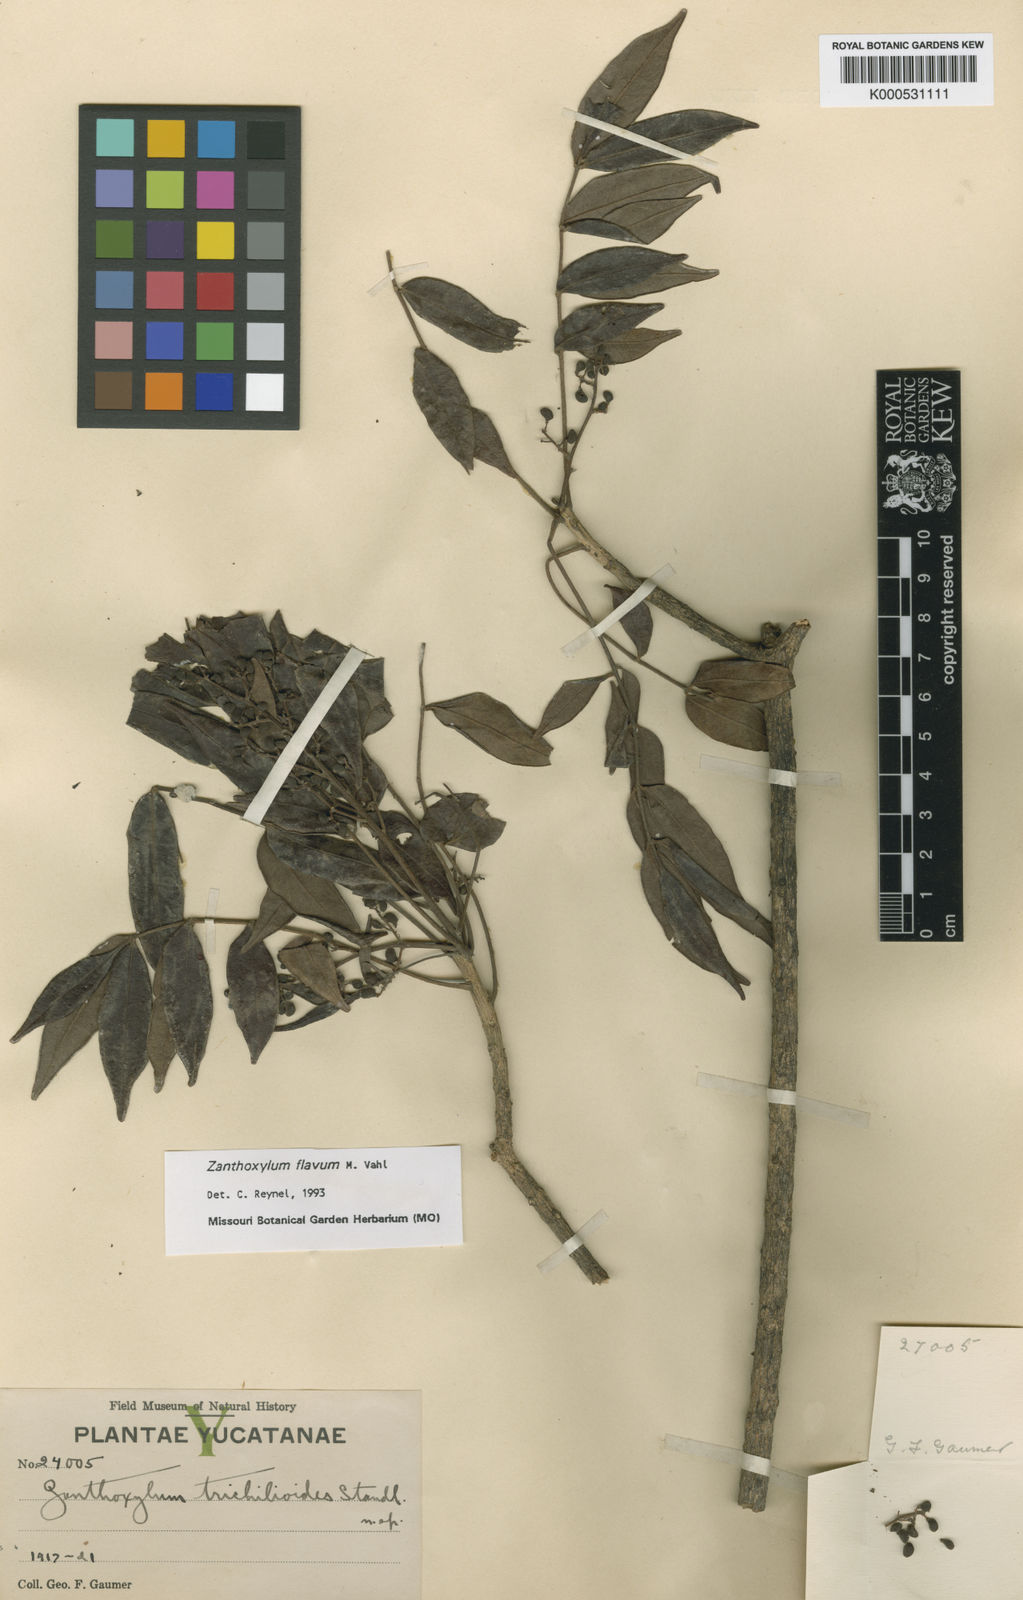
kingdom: Plantae
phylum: Tracheophyta
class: Magnoliopsida
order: Sapindales
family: Rutaceae
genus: Zanthoxylum
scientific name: Zanthoxylum flavum
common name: West indian satinwood
